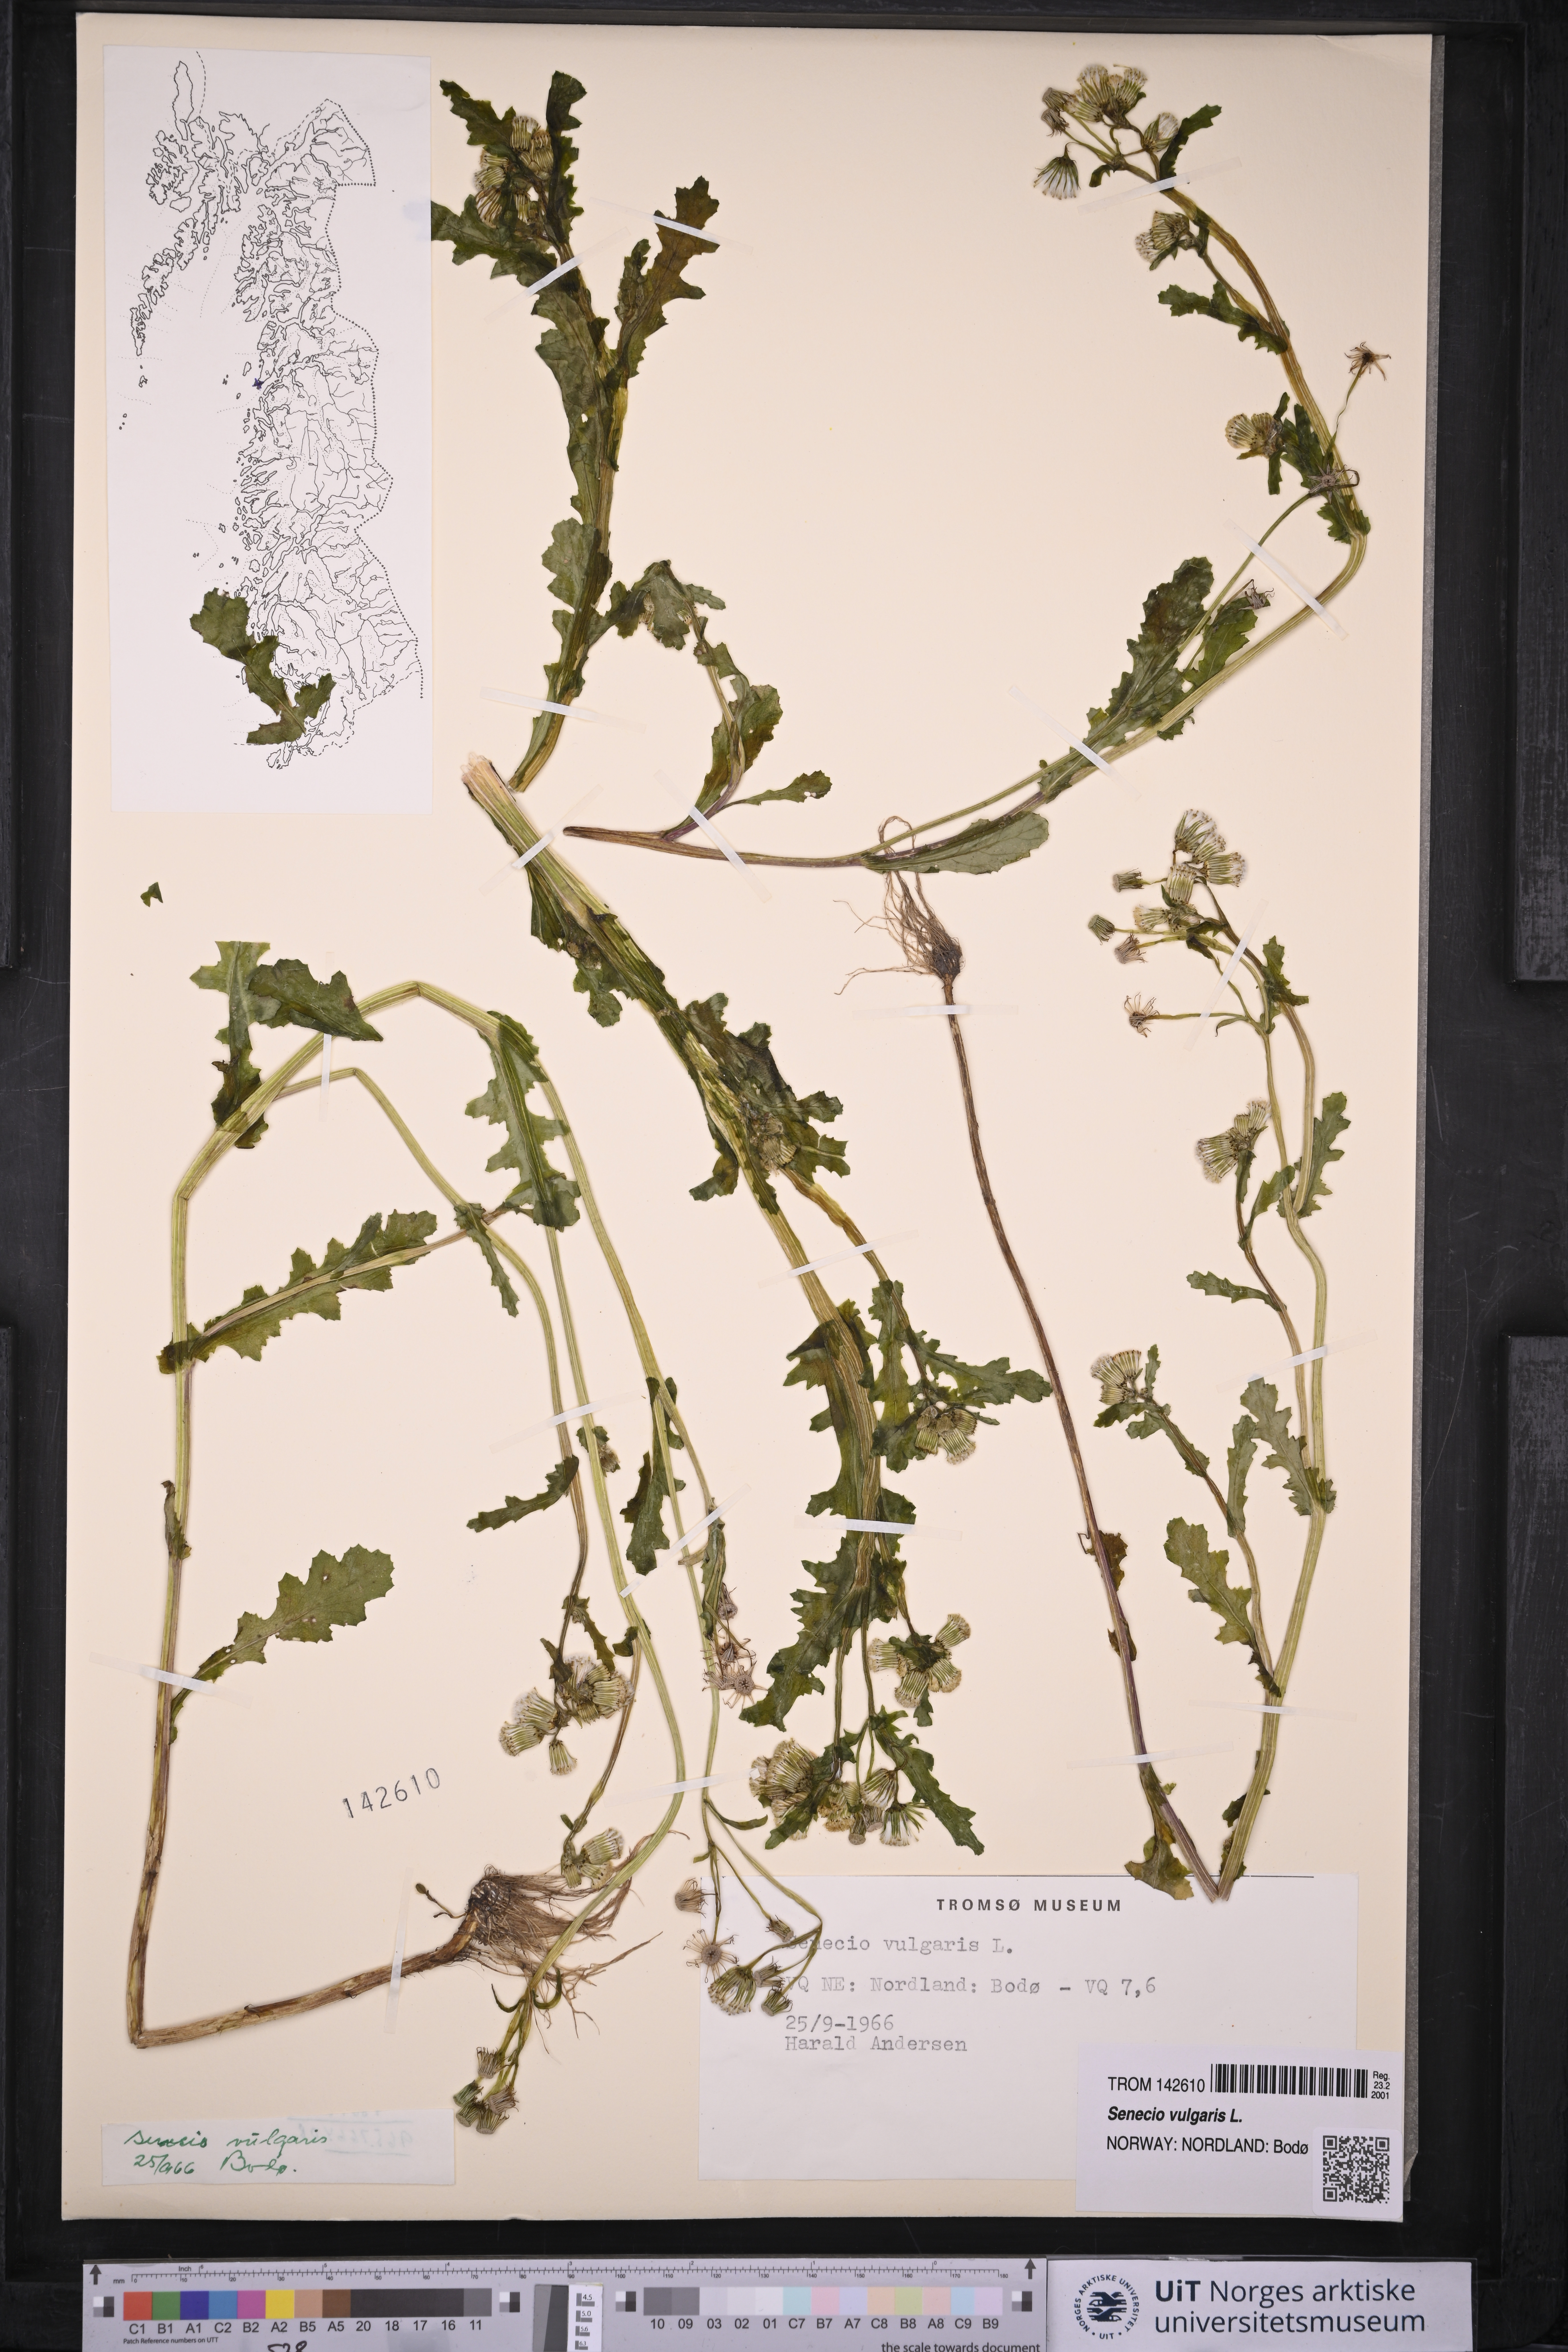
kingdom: Plantae
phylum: Tracheophyta
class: Magnoliopsida
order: Asterales
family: Asteraceae
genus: Senecio
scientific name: Senecio vulgaris
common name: Old-man-in-the-spring
